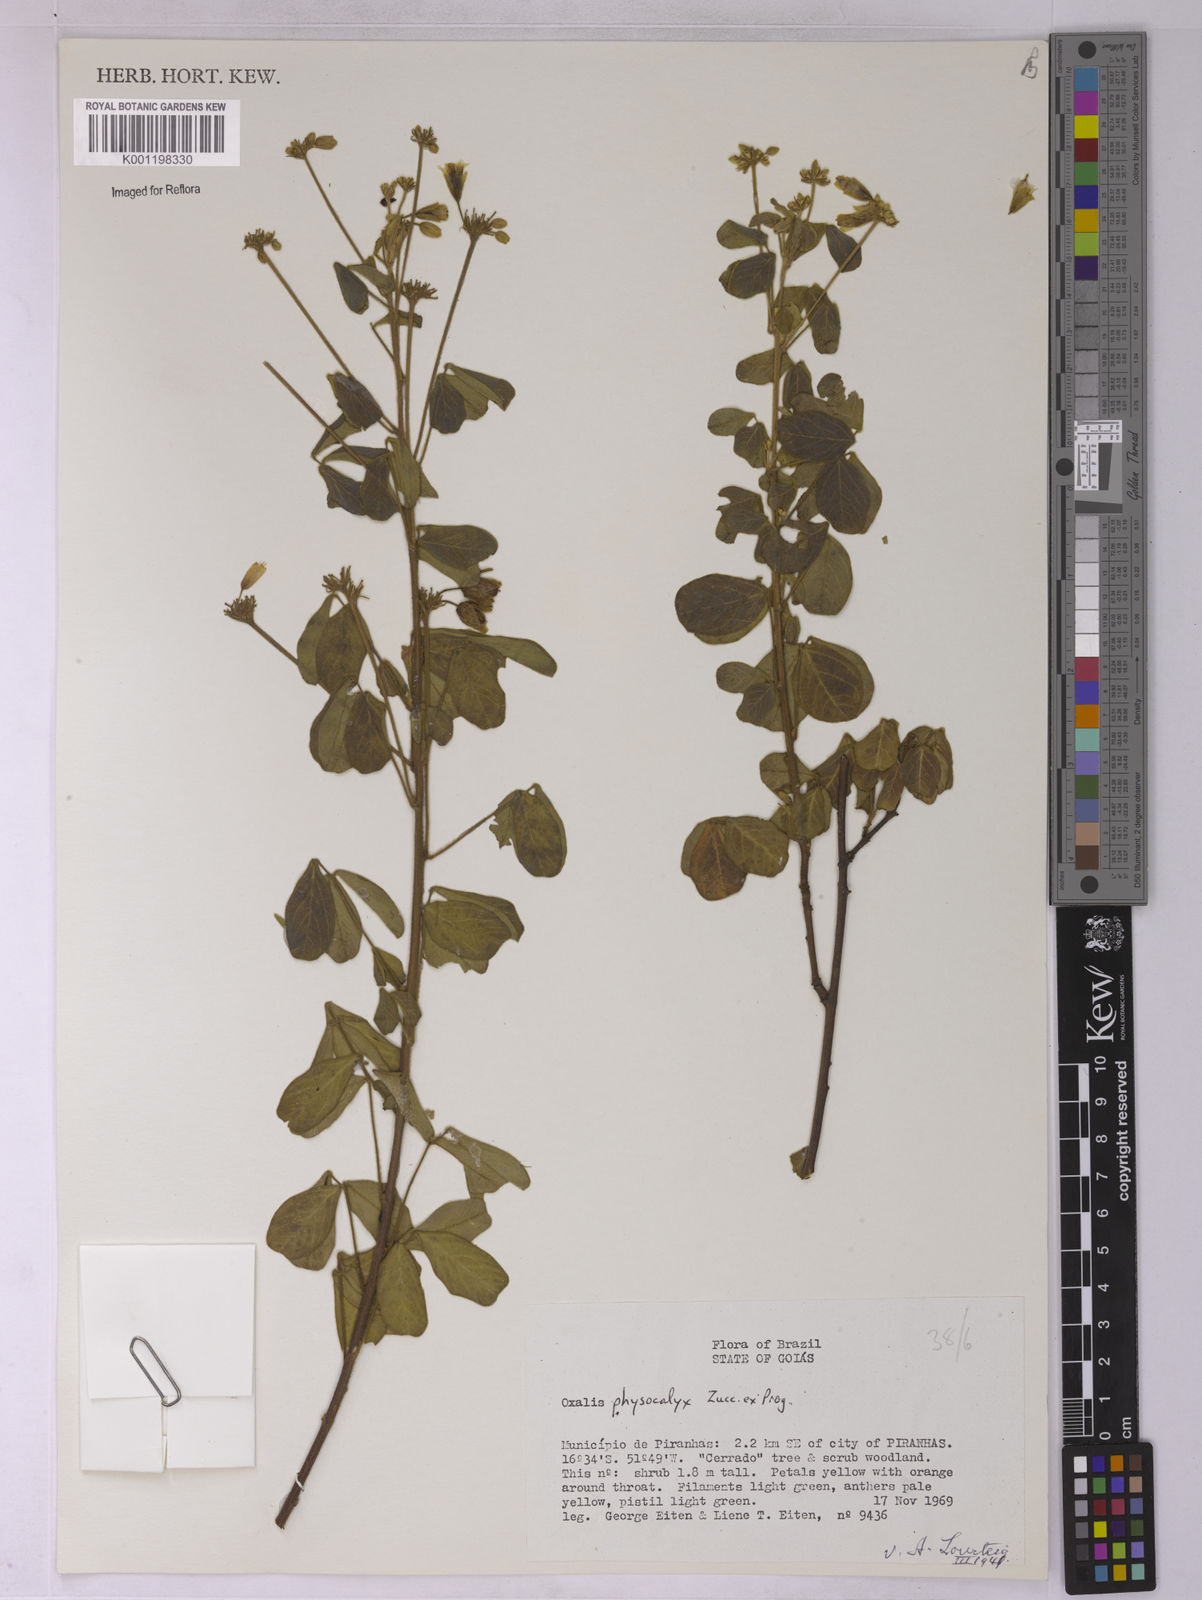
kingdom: Plantae
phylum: Tracheophyta
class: Magnoliopsida
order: Oxalidales
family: Oxalidaceae
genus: Oxalis
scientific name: Oxalis physocalyx
